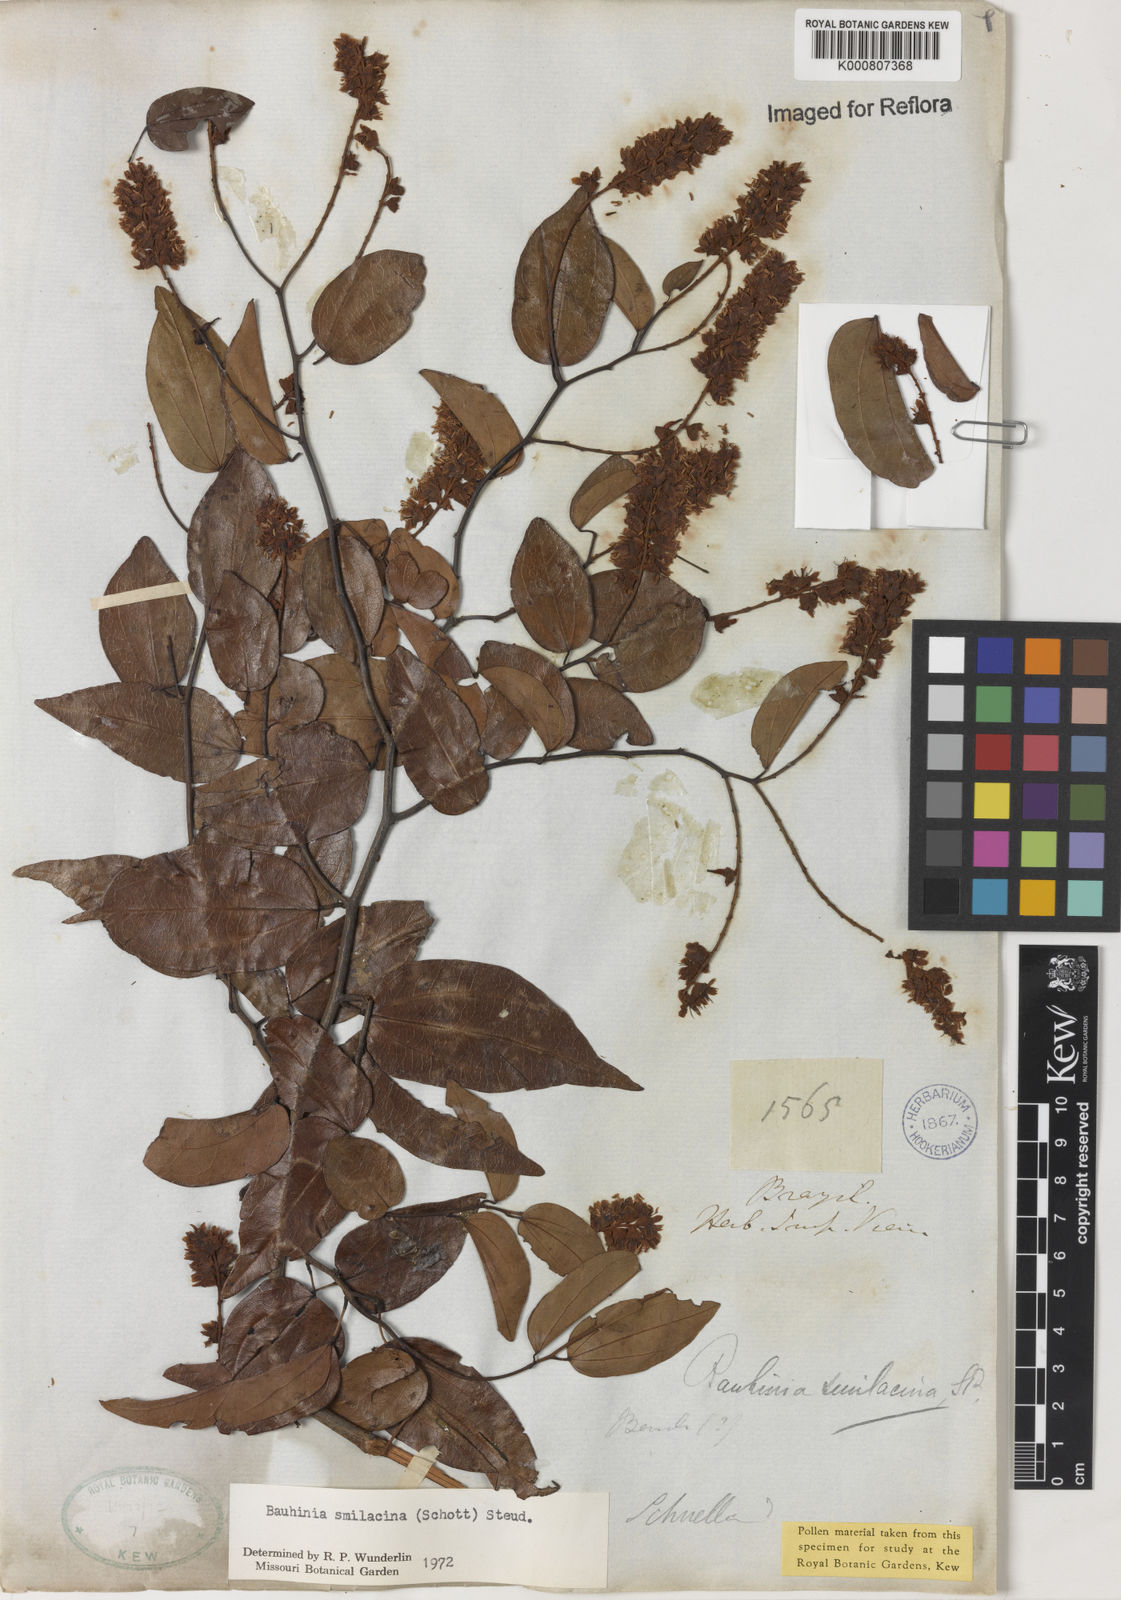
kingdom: Plantae
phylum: Tracheophyta
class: Magnoliopsida
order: Fabales
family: Fabaceae
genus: Schnella
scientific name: Schnella smilacina
